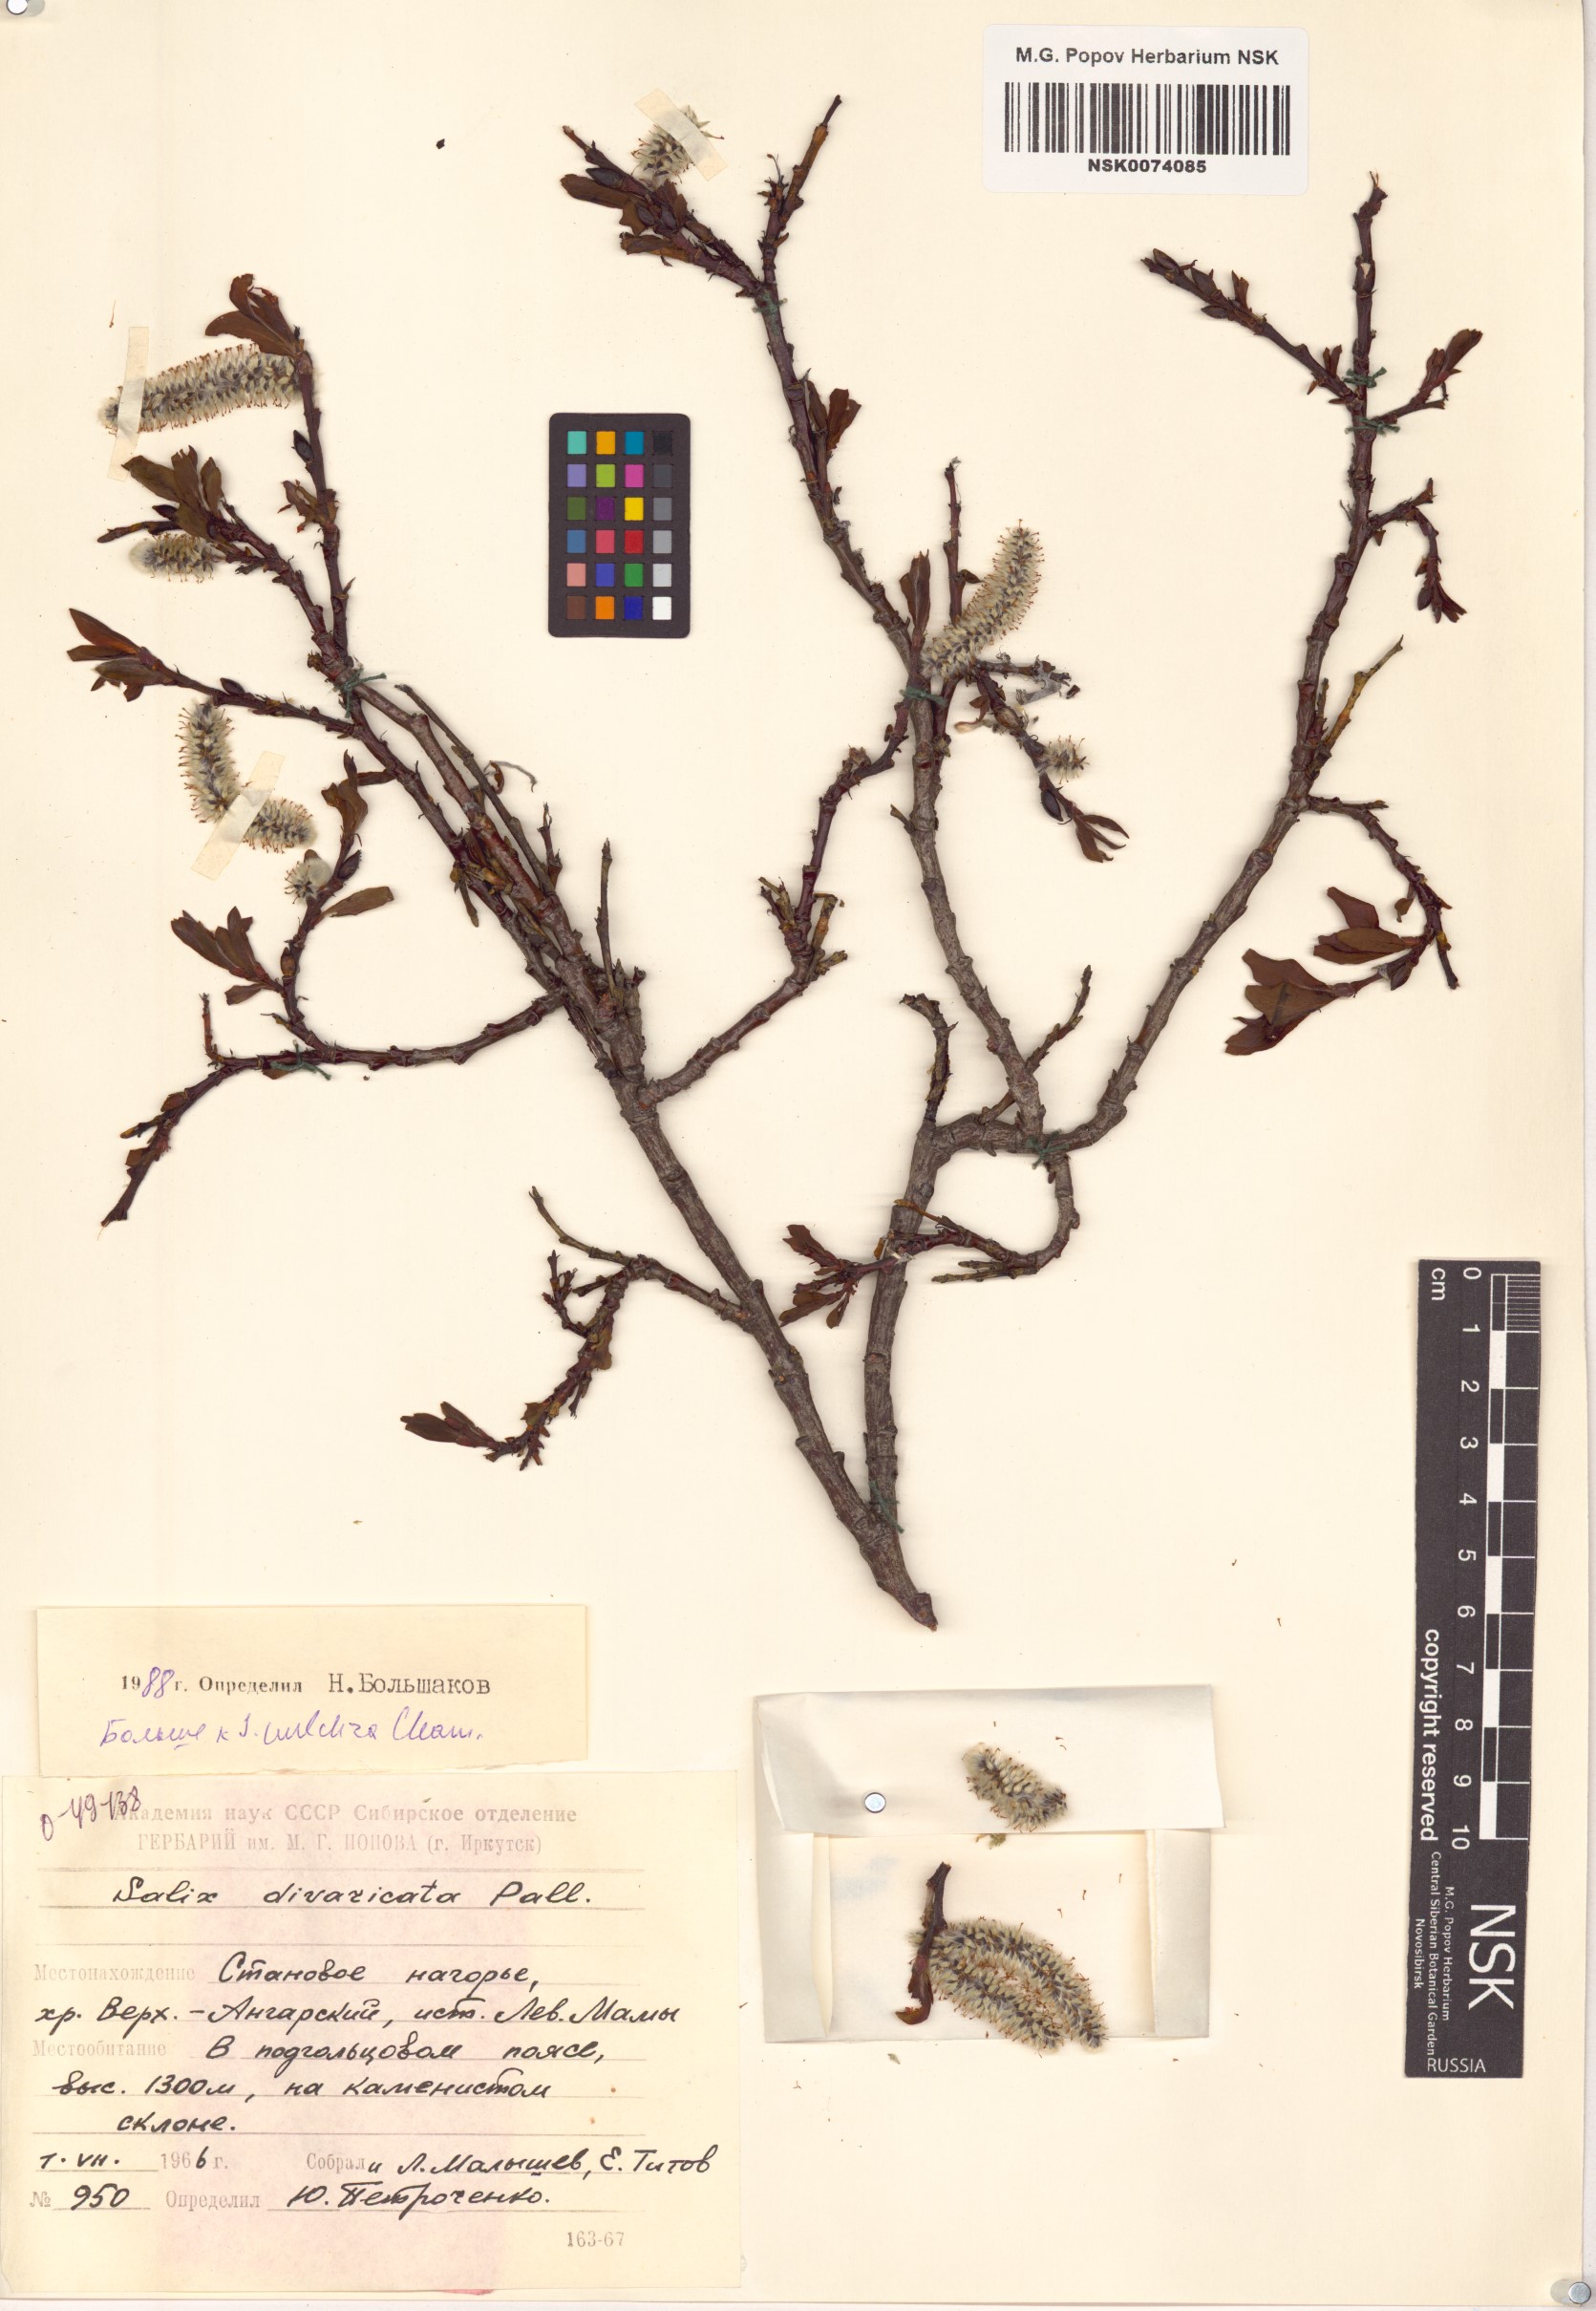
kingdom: Plantae
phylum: Tracheophyta
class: Magnoliopsida
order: Malpighiales
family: Salicaceae
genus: Salix
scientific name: Salix pulchra
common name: Diamond-leaved willow
